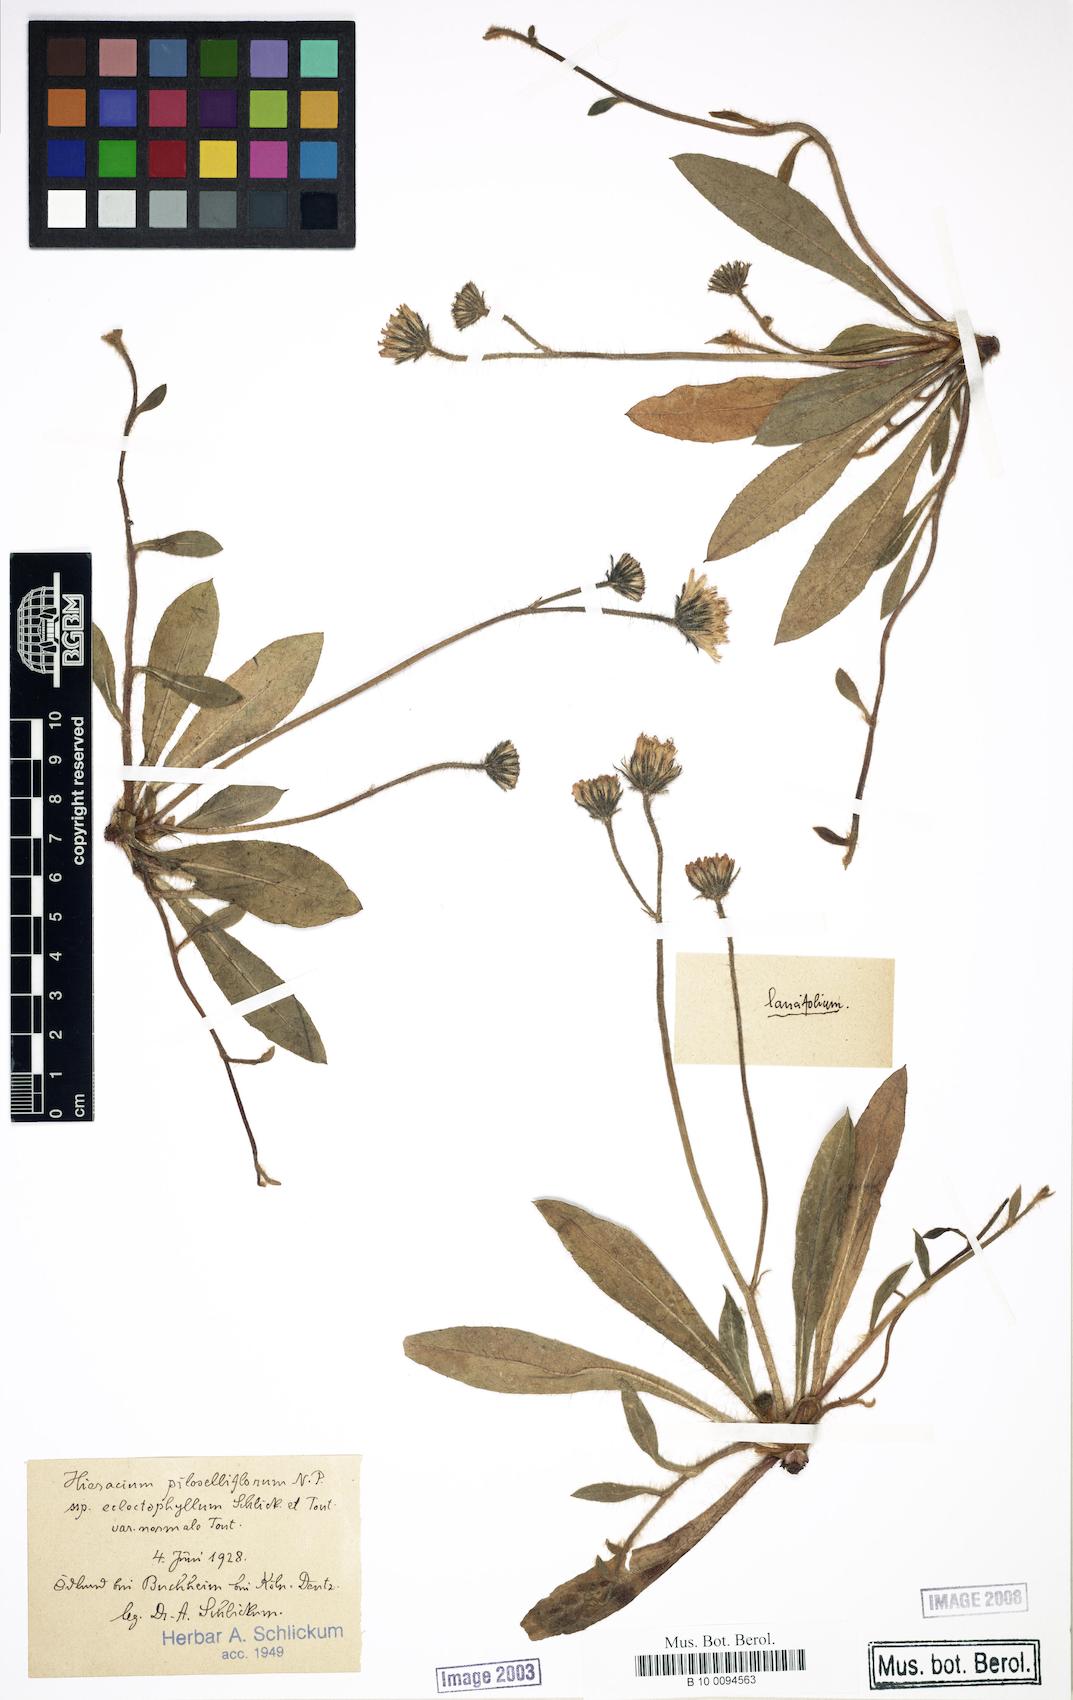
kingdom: Plantae
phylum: Tracheophyta
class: Magnoliopsida
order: Asterales
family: Asteraceae
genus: Pilosella
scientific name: Pilosella piloselliflora
